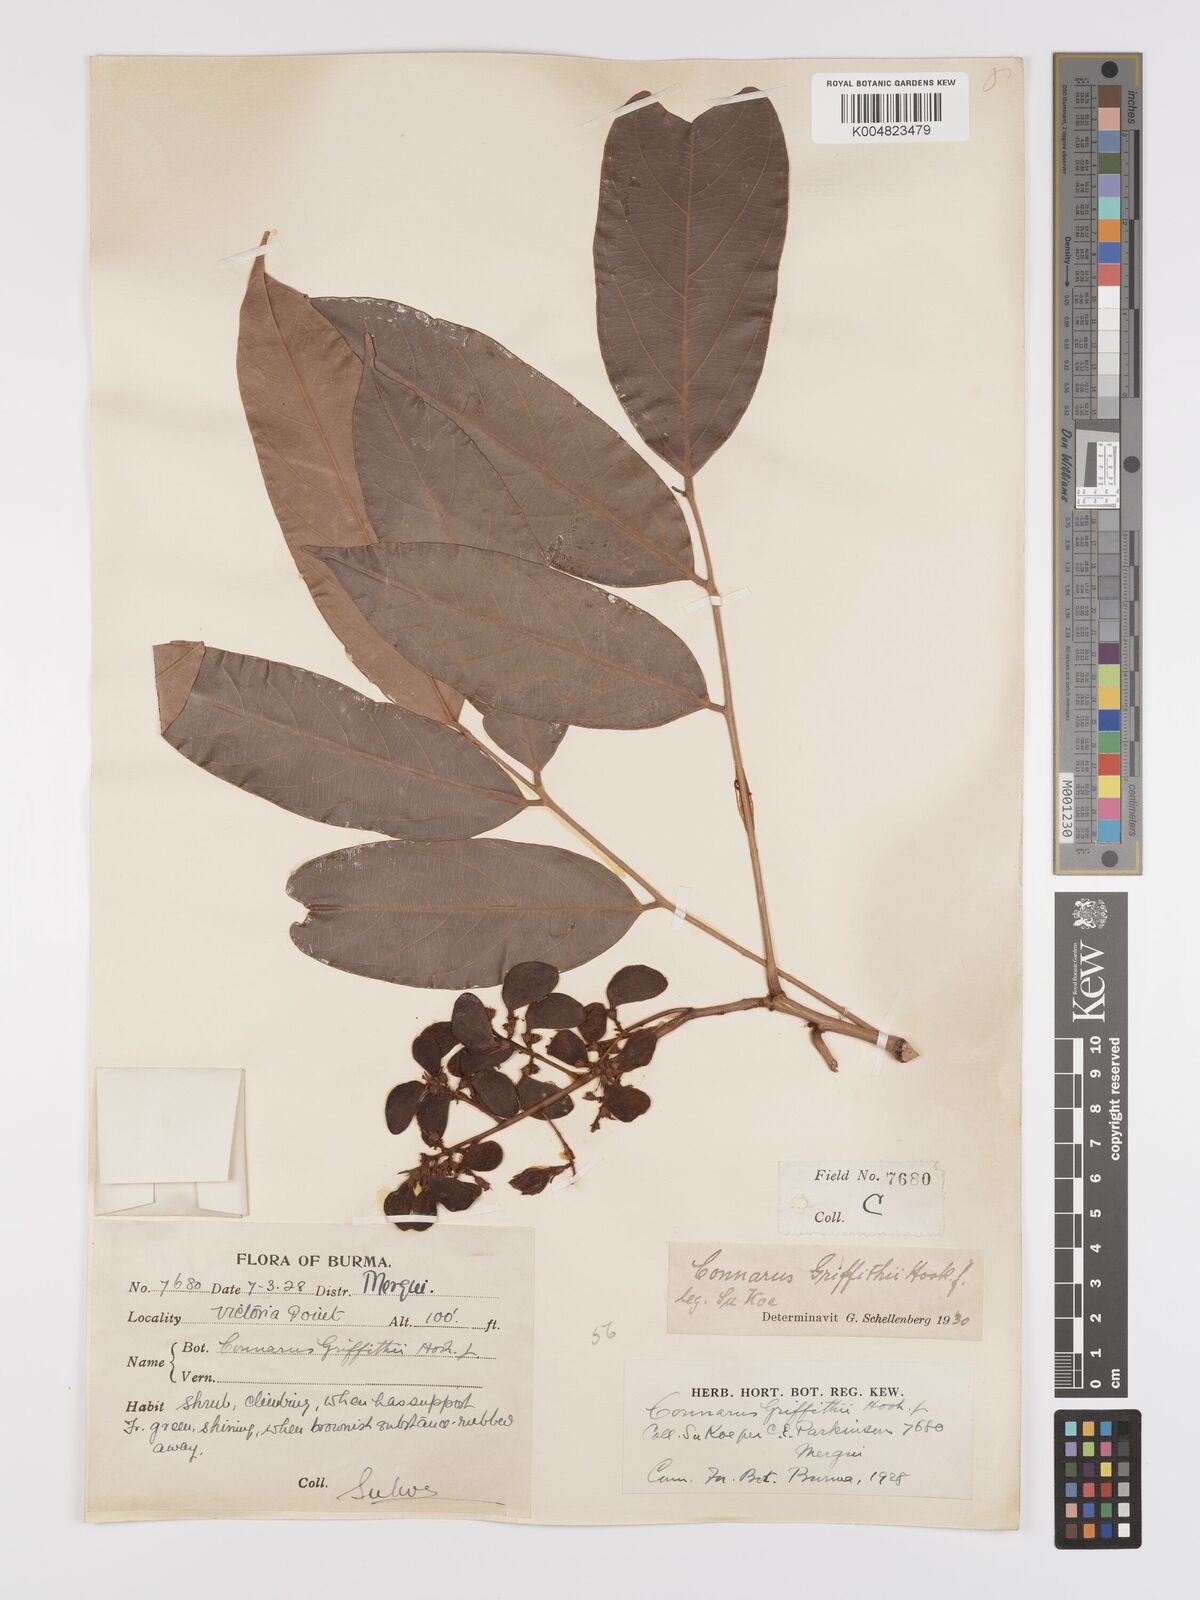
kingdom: Plantae
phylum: Tracheophyta
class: Magnoliopsida
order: Oxalidales
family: Connaraceae
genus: Connarus
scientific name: Connarus semidecandrus
